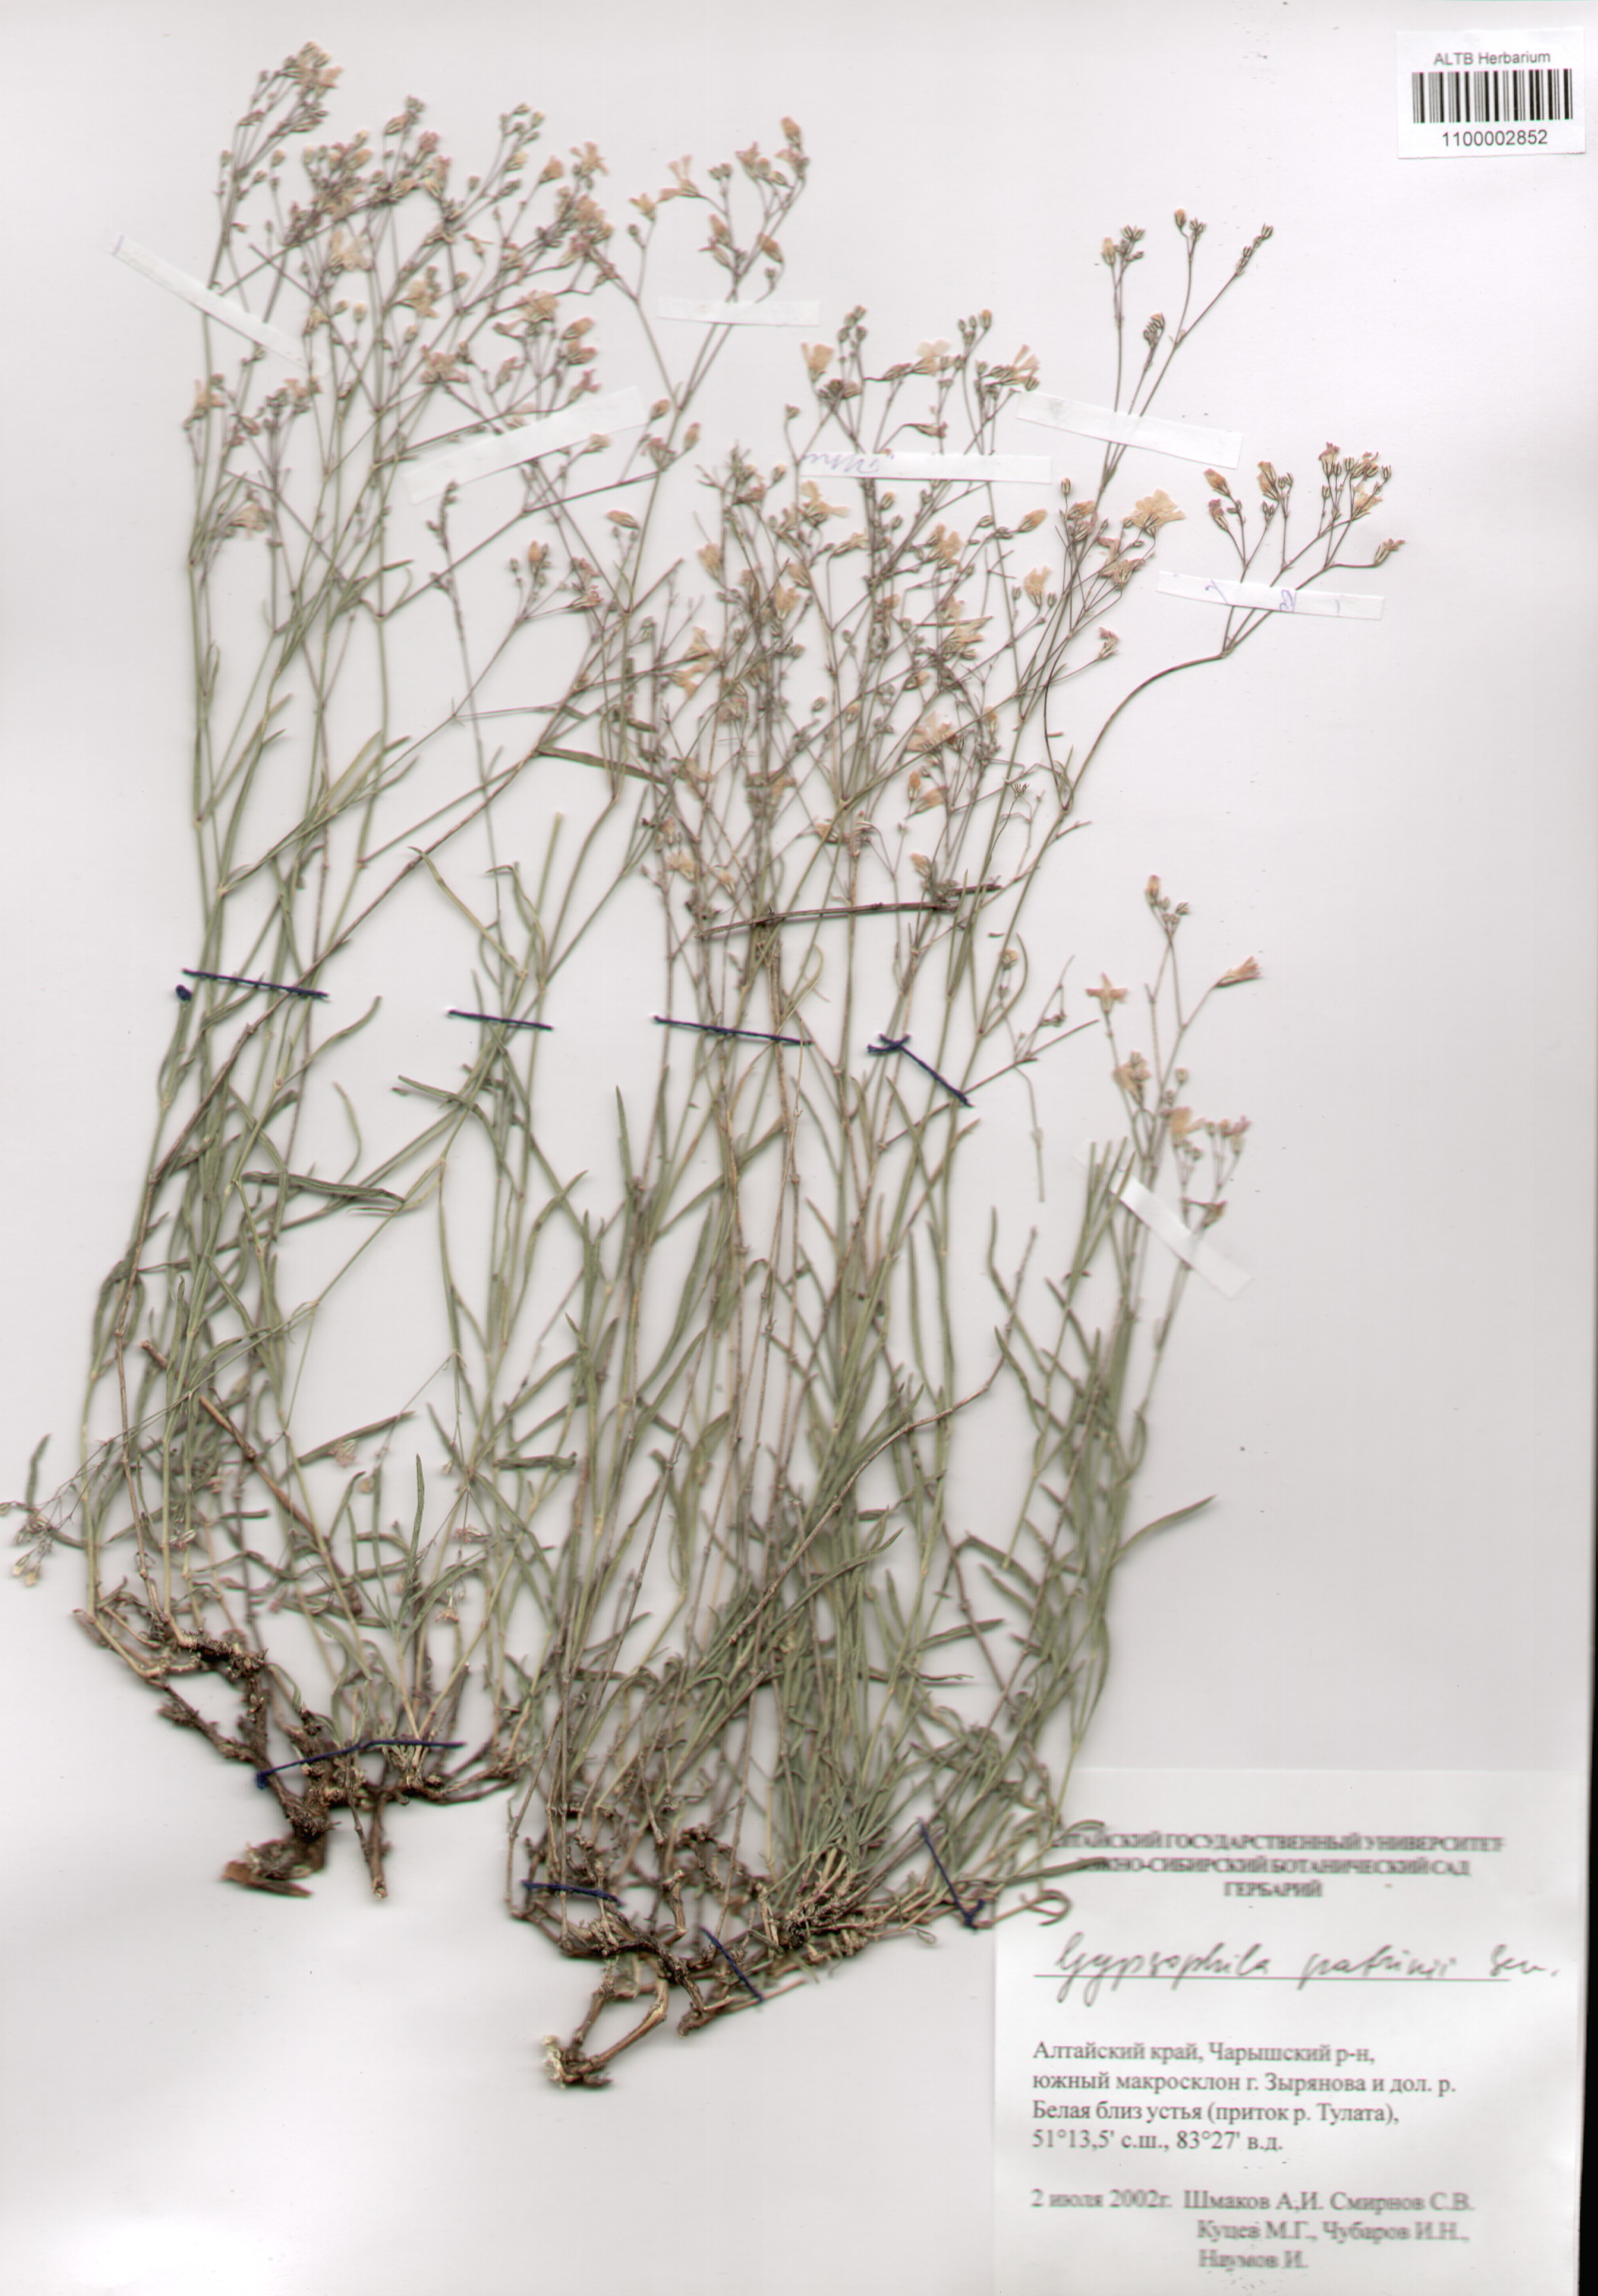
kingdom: Plantae
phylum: Tracheophyta
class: Magnoliopsida
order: Caryophyllales
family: Caryophyllaceae
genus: Gypsophila
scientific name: Gypsophila patrinii
